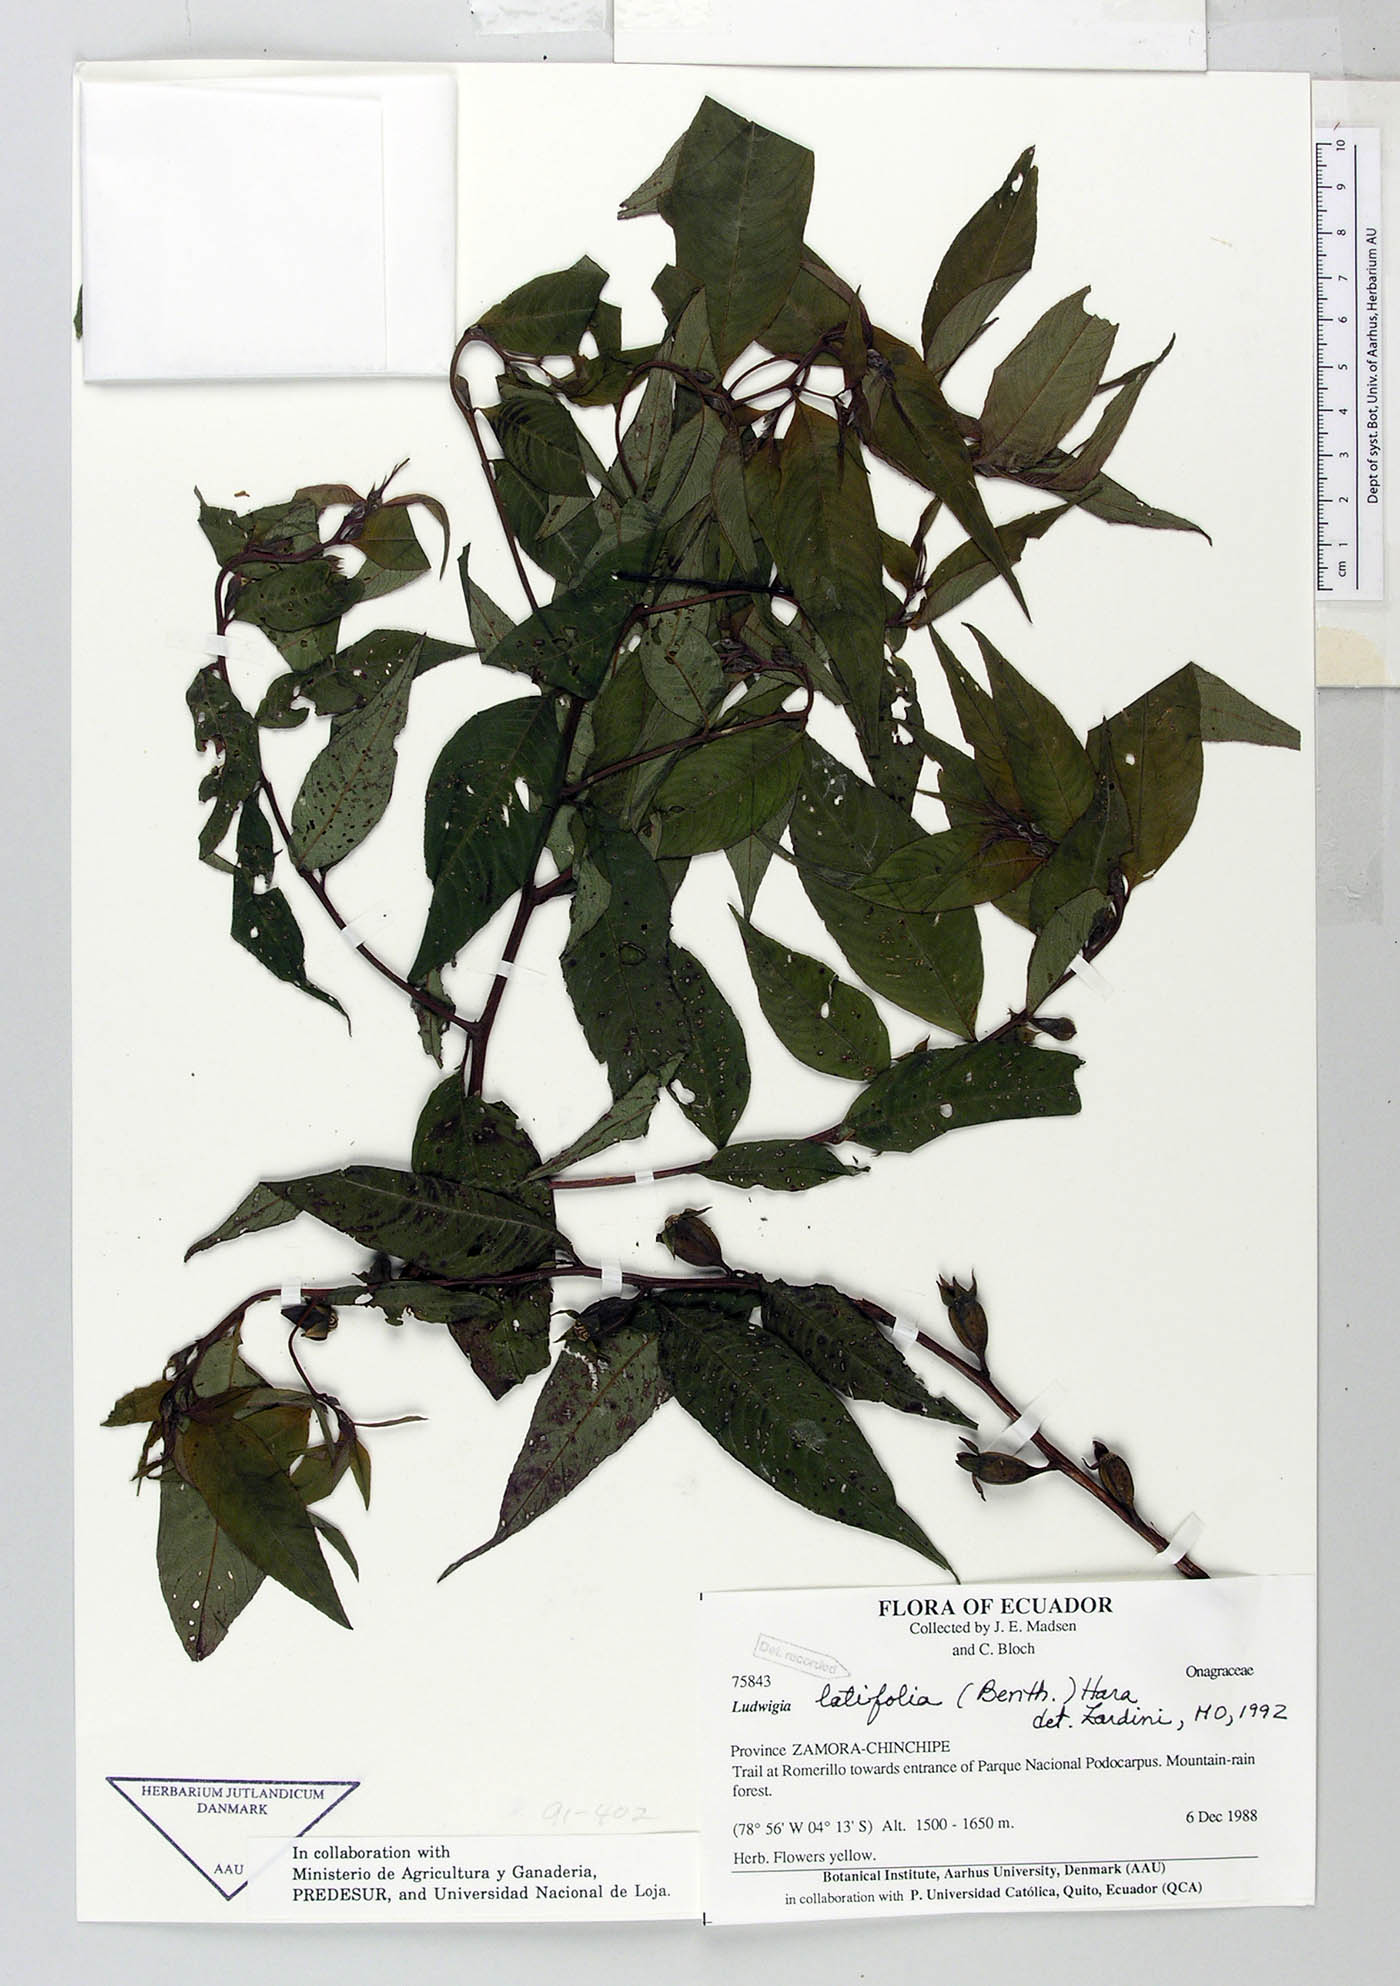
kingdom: Plantae
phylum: Tracheophyta
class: Magnoliopsida
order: Myrtales
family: Onagraceae
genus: Ludwigia
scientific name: Ludwigia latifolia
